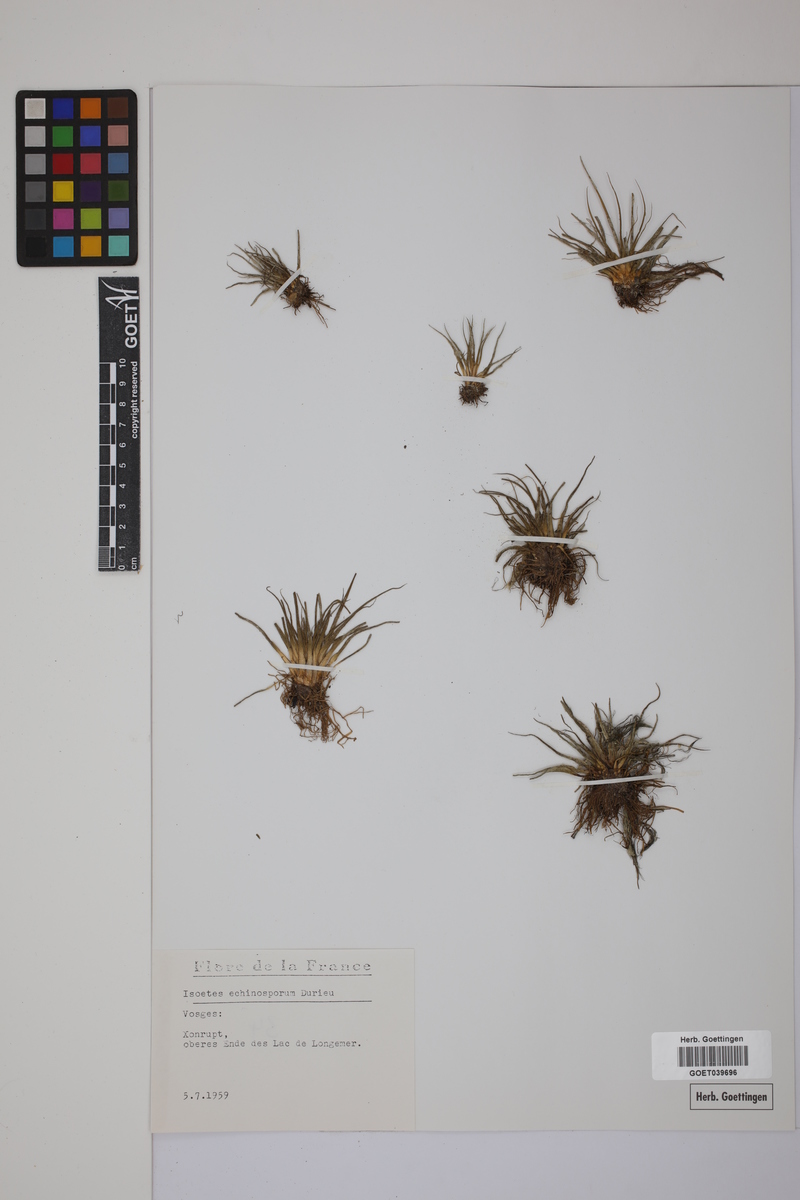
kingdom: Plantae
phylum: Tracheophyta
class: Lycopodiopsida
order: Isoetales
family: Isoetaceae
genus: Isoetes
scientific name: Isoetes echinospora
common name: Spring quillwort
